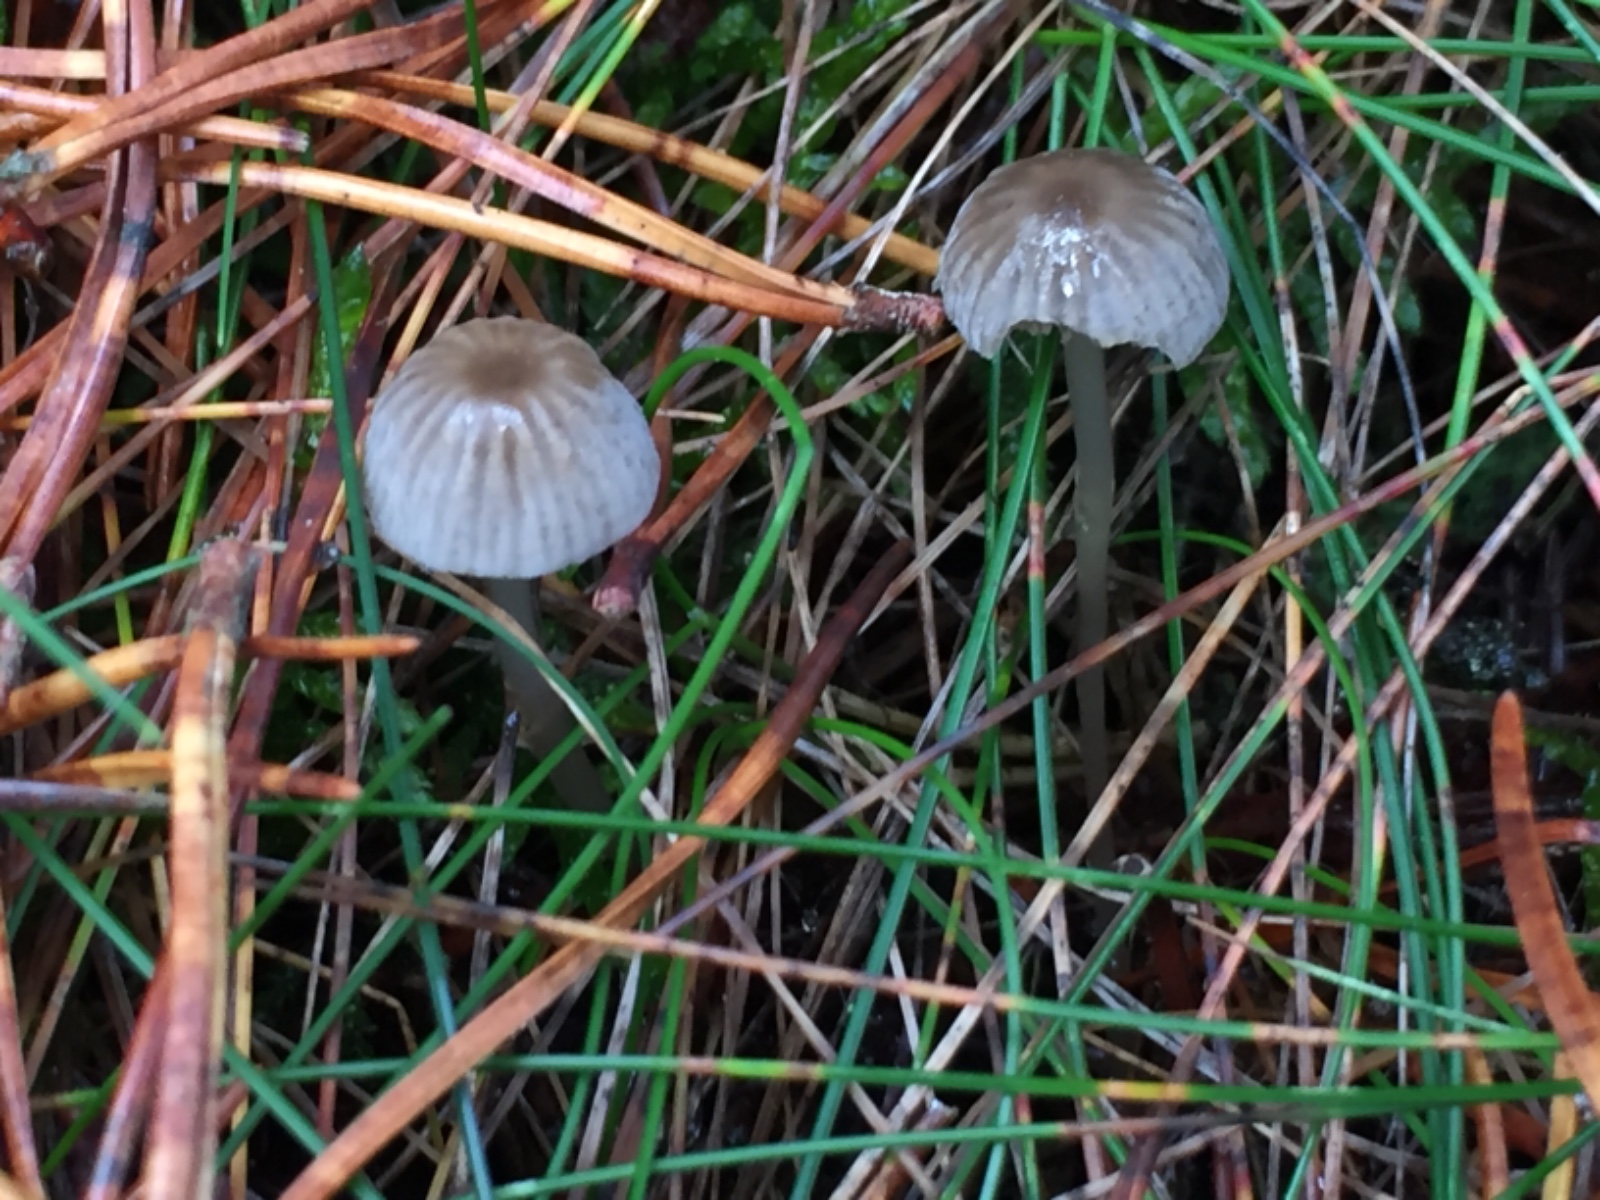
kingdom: Fungi
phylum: Basidiomycota
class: Agaricomycetes
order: Agaricales
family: Mycenaceae
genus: Mycena
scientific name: Mycena
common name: huesvamp
